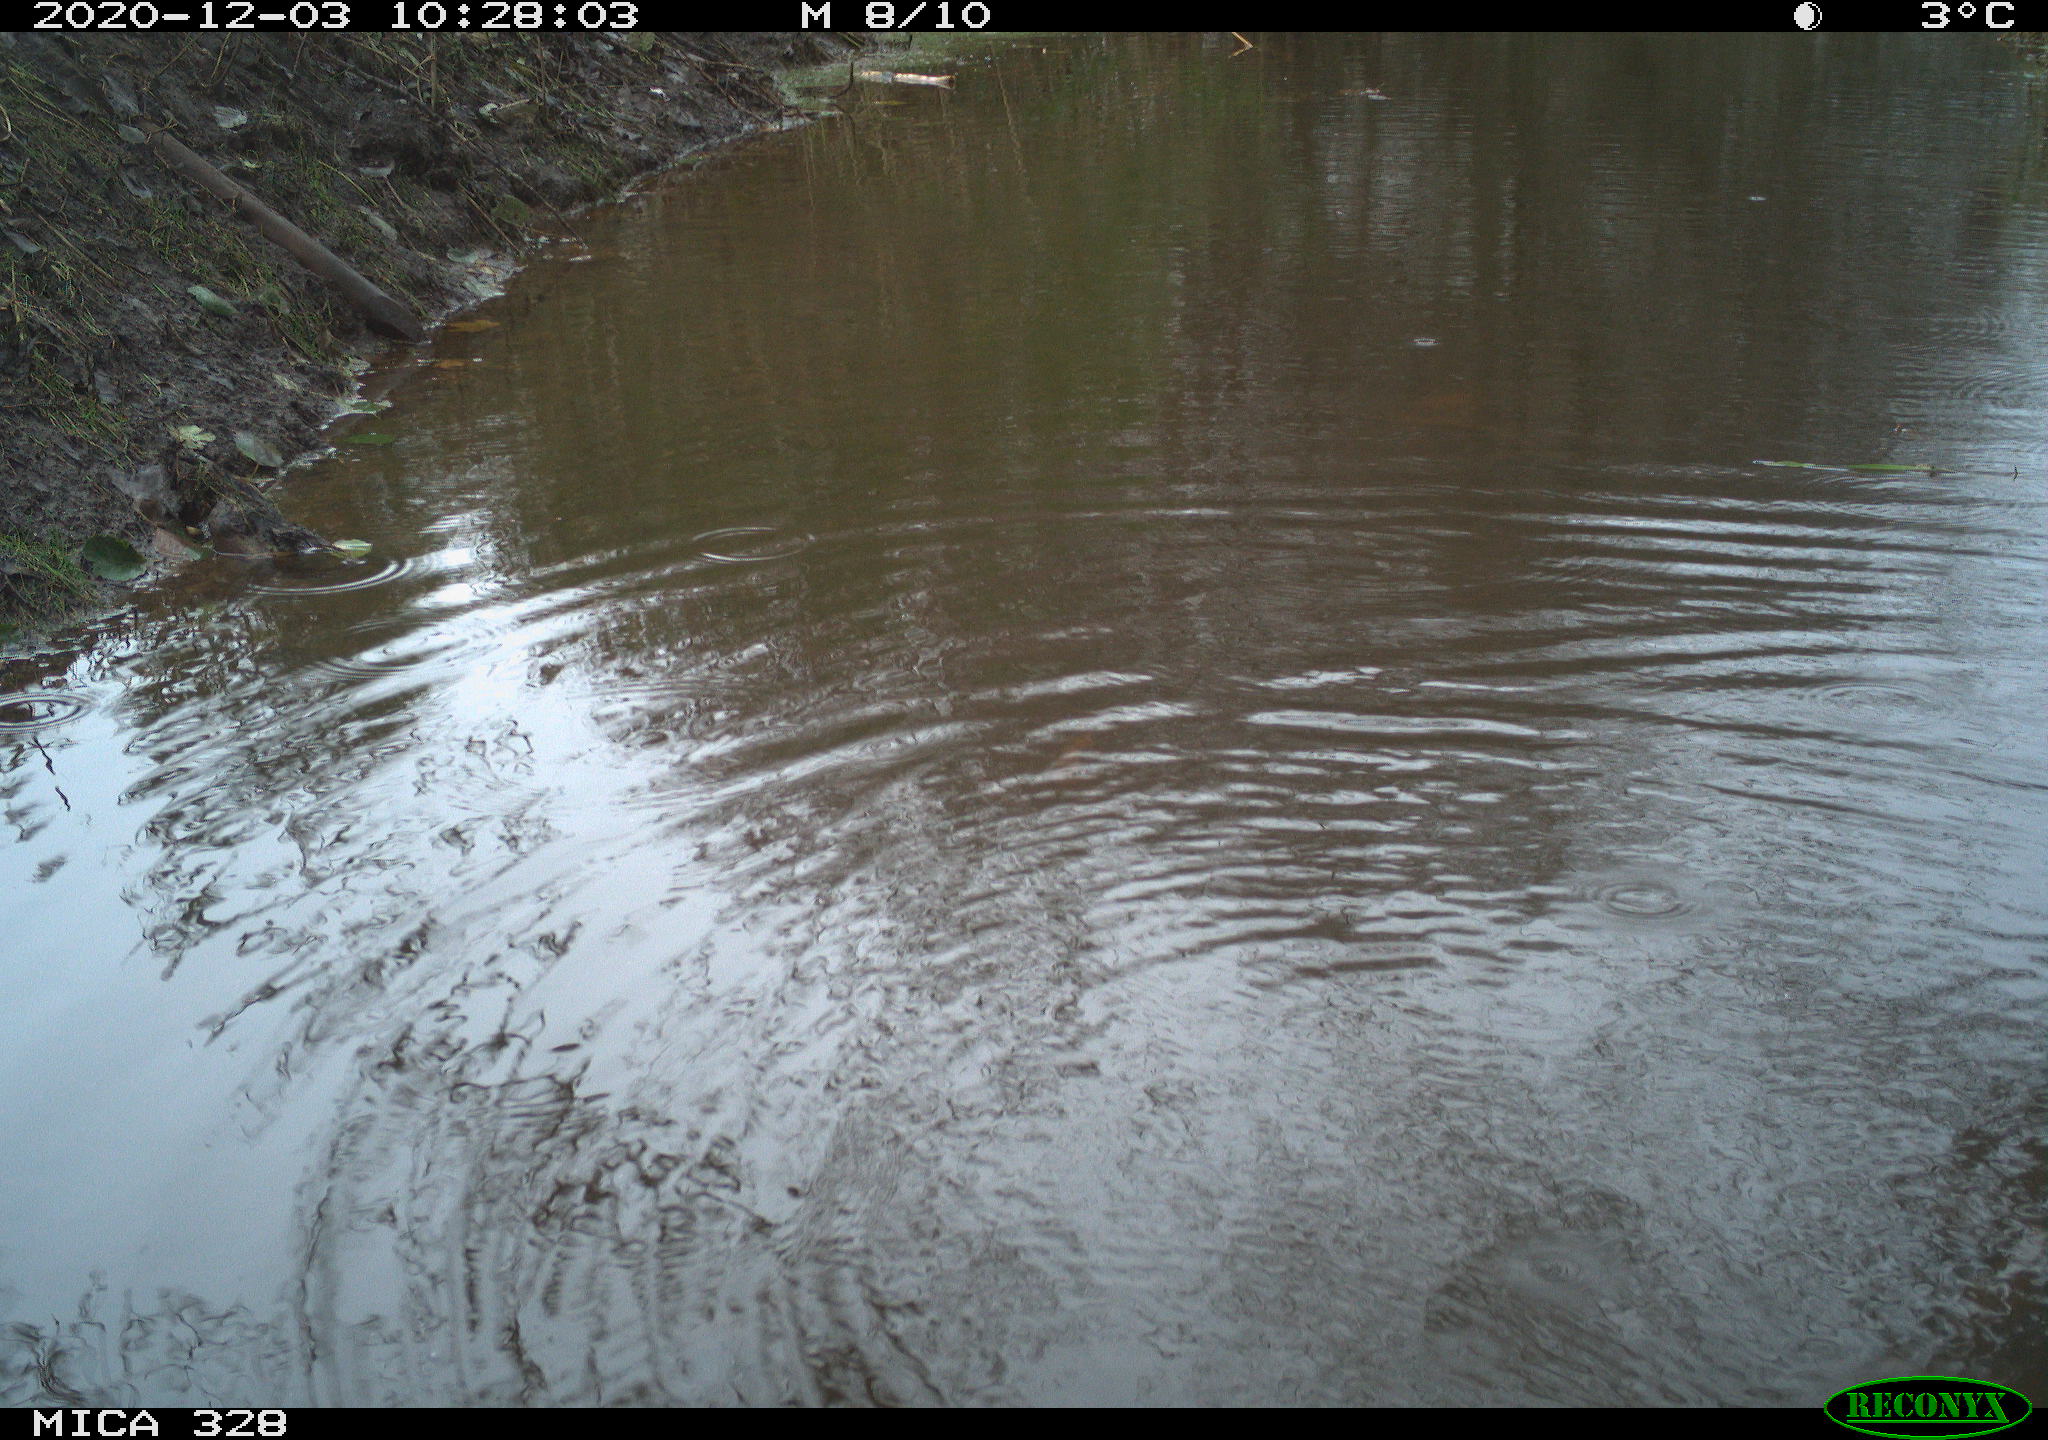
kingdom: Animalia
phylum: Chordata
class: Aves
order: Pelecaniformes
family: Ardeidae
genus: Ardea
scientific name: Ardea alba
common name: Great egret
